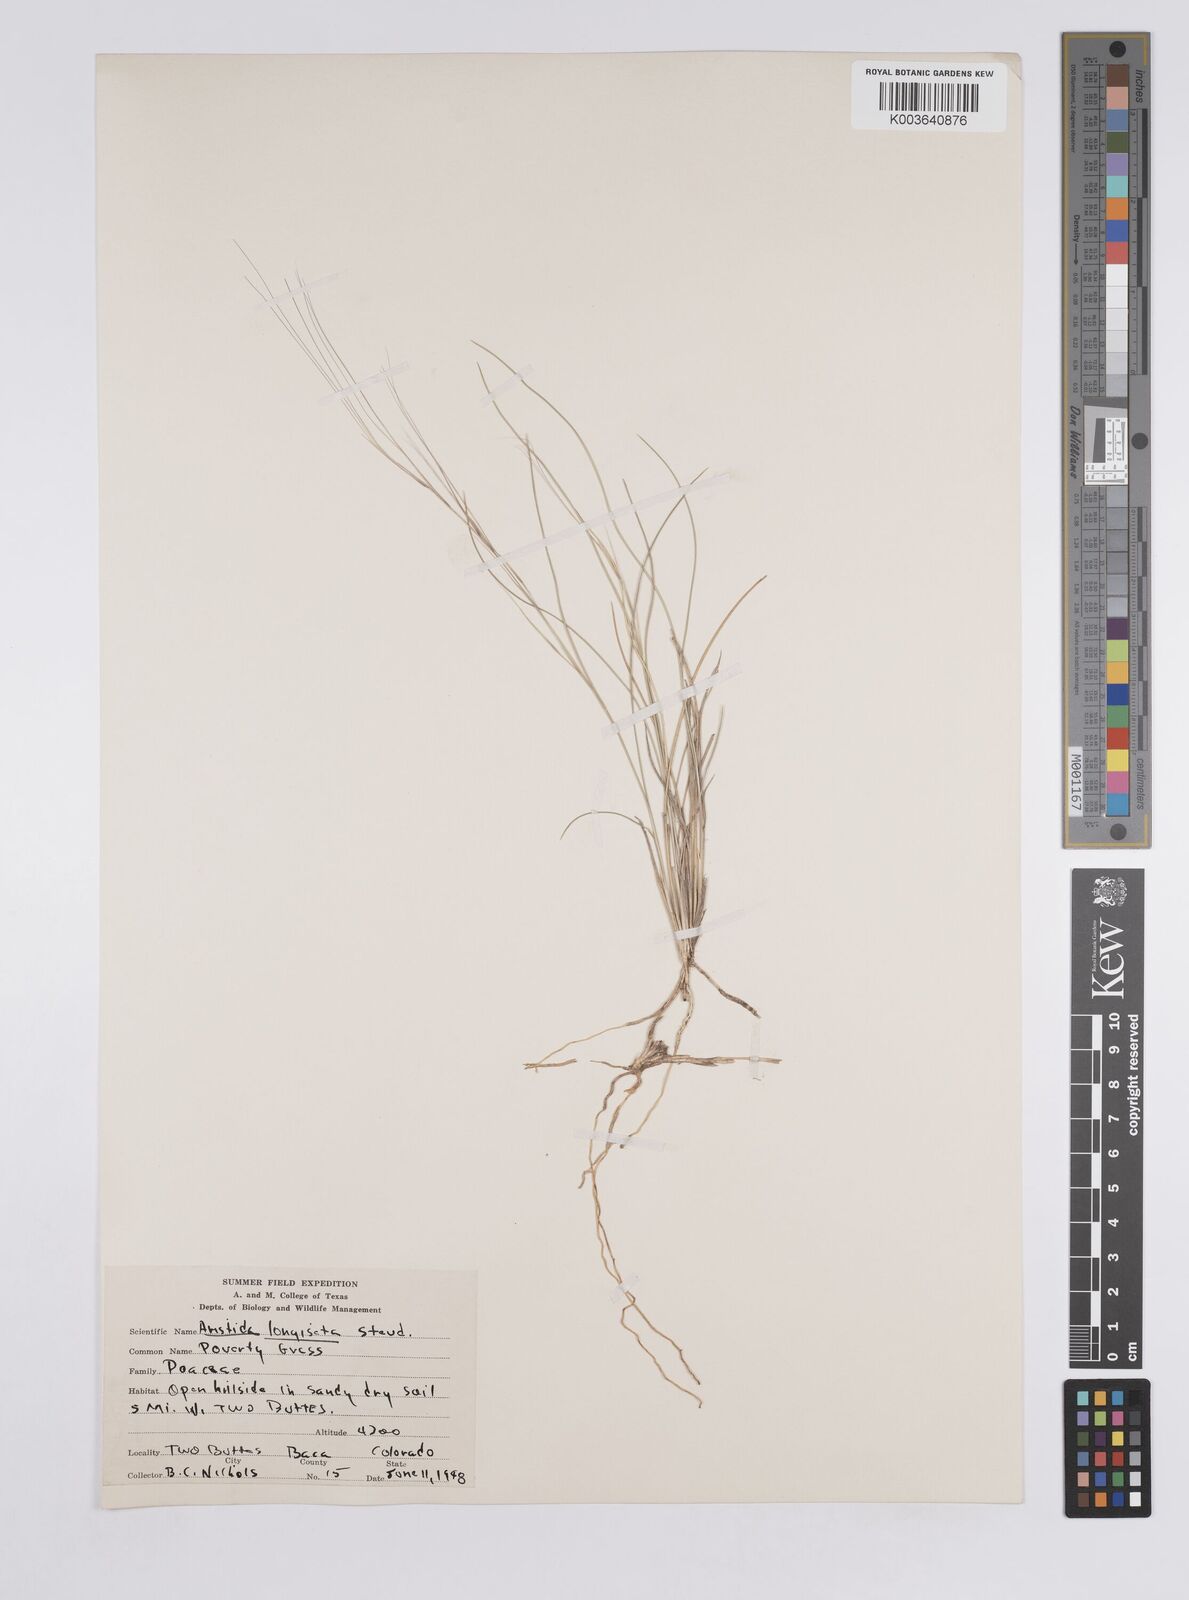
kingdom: Plantae
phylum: Tracheophyta
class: Liliopsida
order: Poales
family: Poaceae
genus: Aristida
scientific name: Aristida purpurea
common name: Purple threeawn
